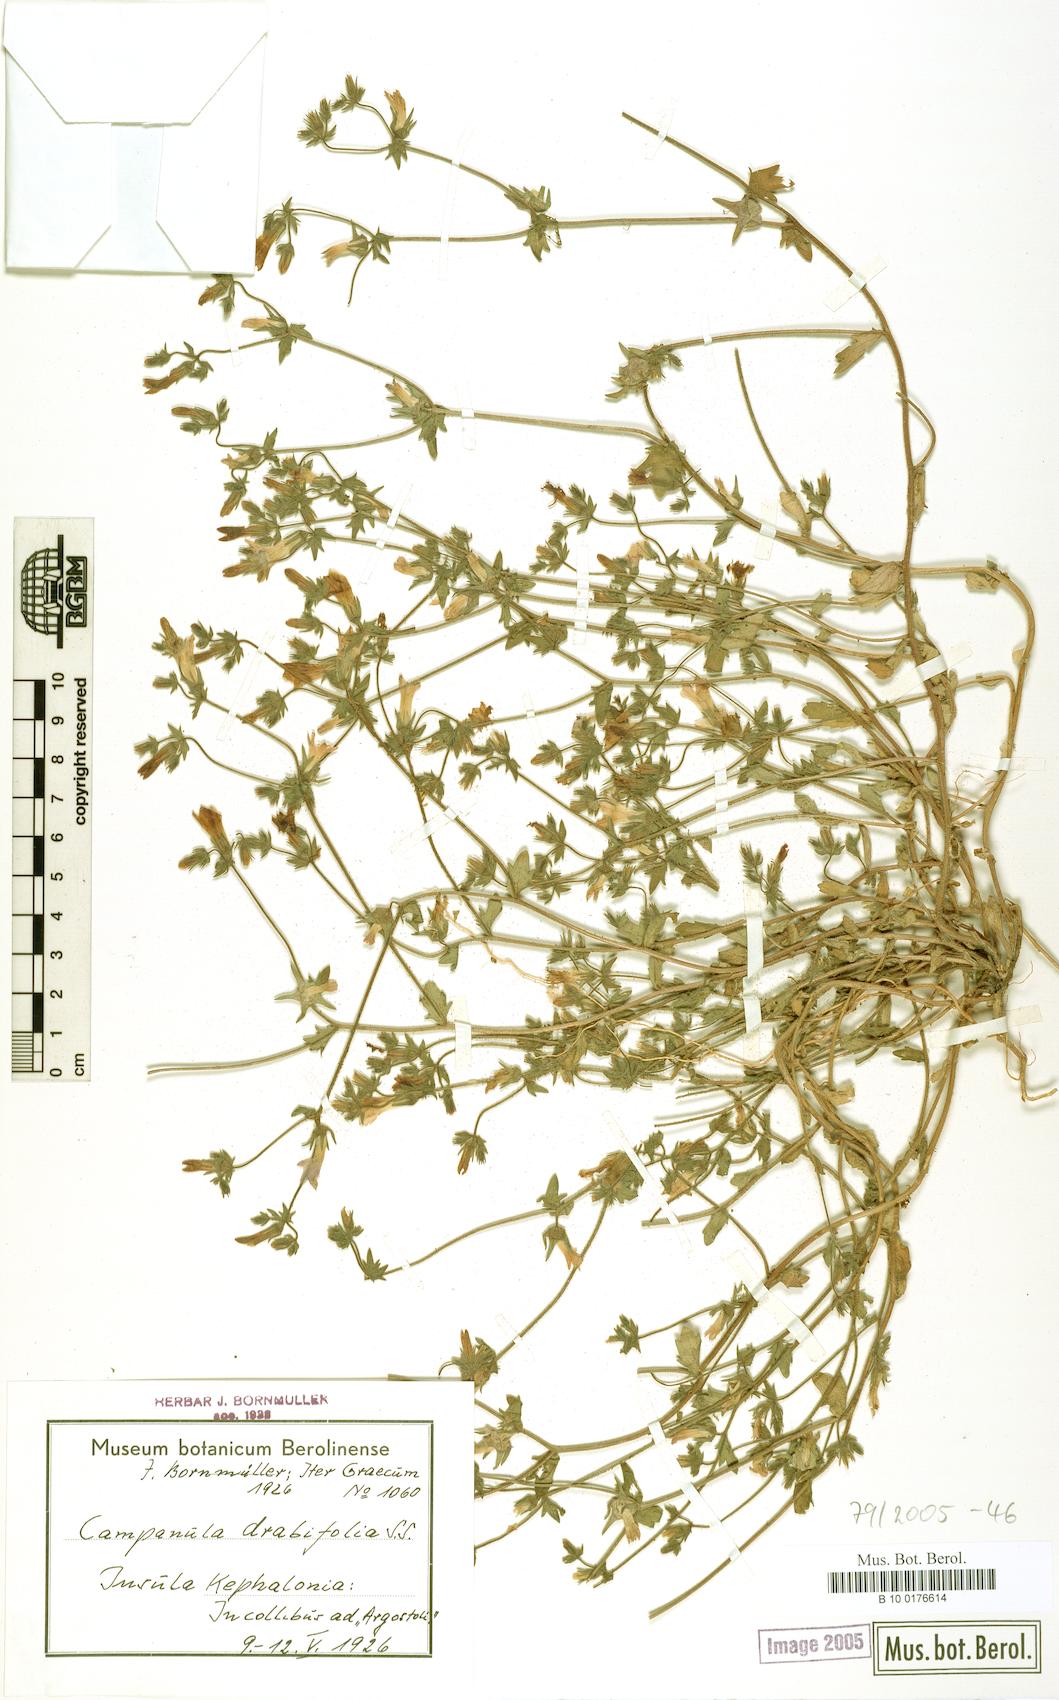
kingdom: Plantae
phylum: Tracheophyta
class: Magnoliopsida
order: Asterales
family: Campanulaceae
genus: Campanula
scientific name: Campanula drabifolia
